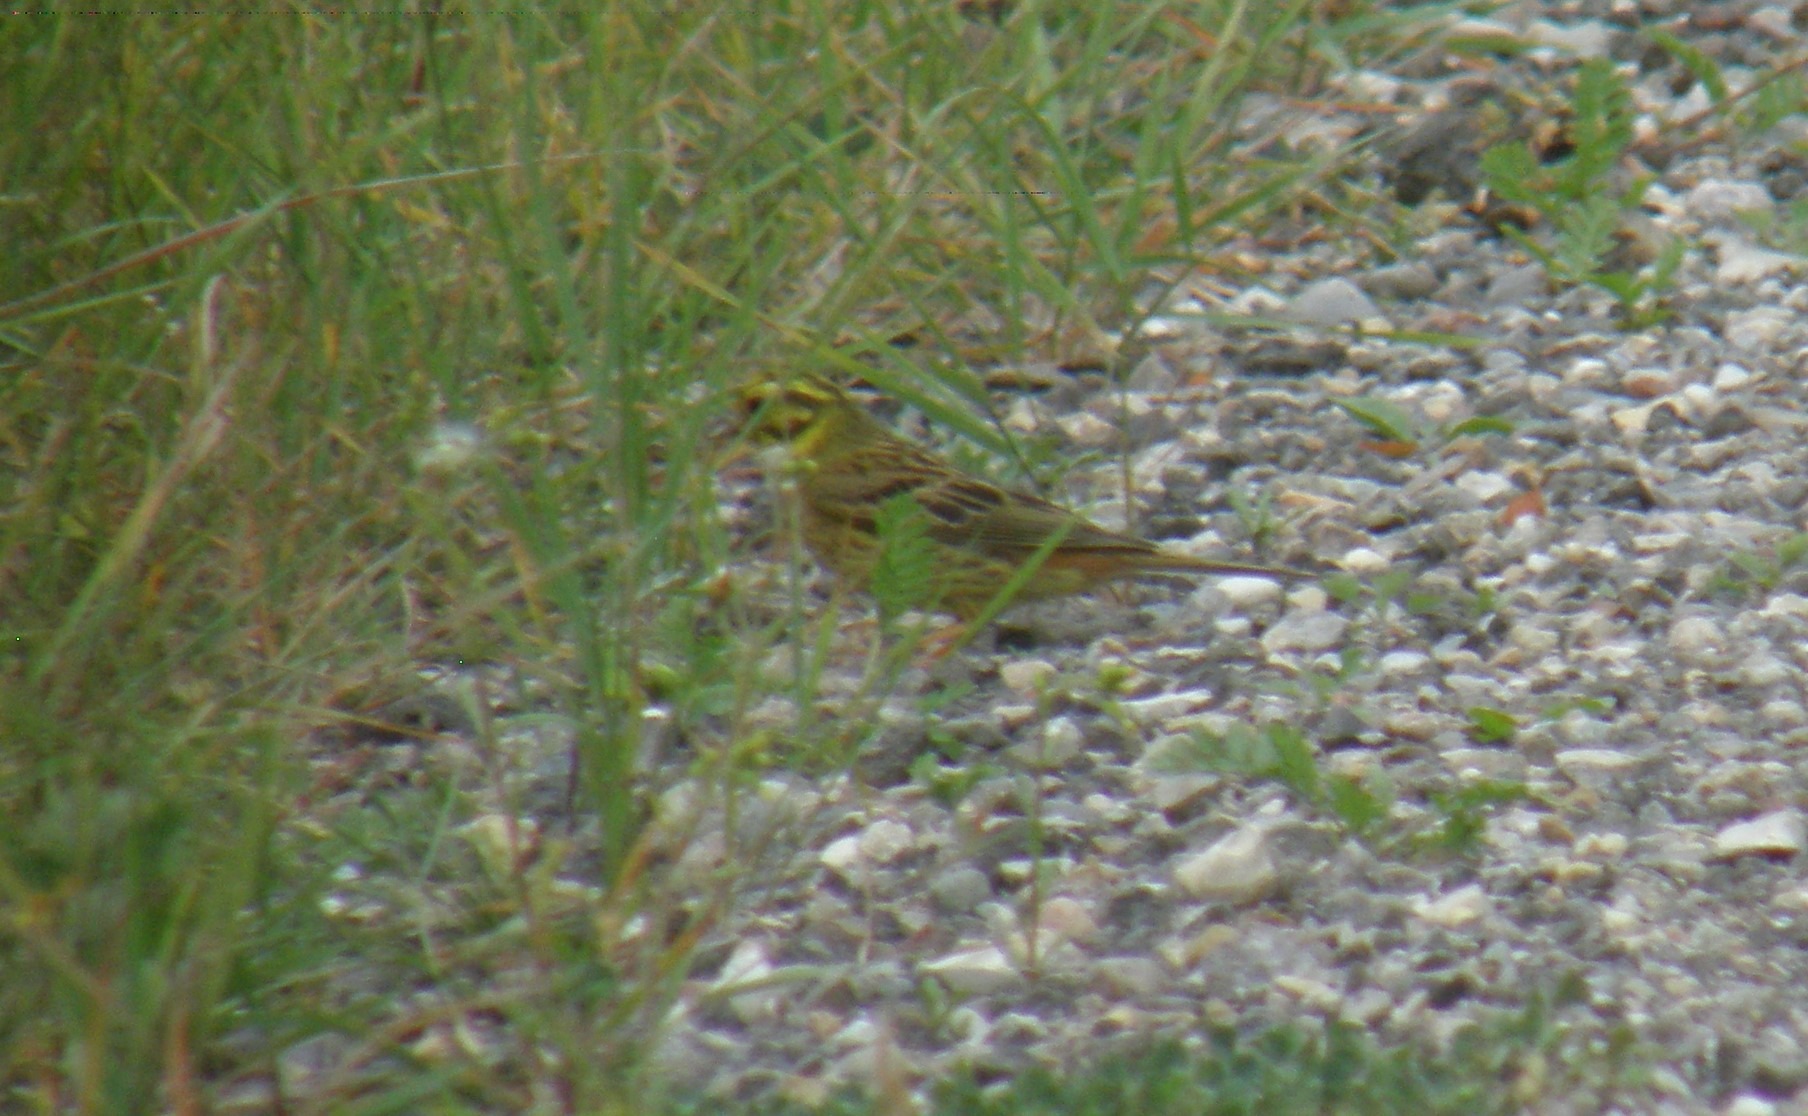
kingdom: Animalia
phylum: Chordata
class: Aves
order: Passeriformes
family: Emberizidae
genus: Emberiza
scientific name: Emberiza citrinella
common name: Gulspurv
